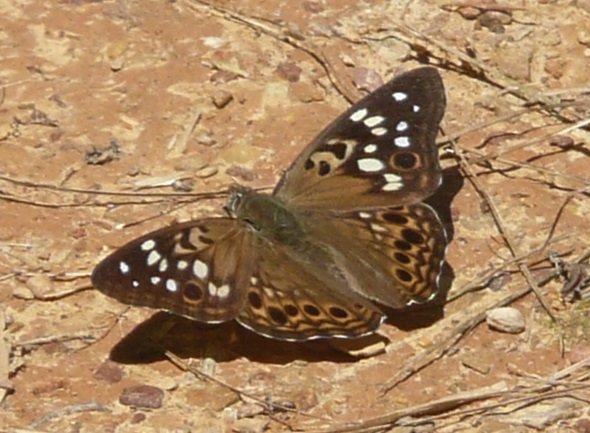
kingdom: Animalia
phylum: Arthropoda
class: Insecta
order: Lepidoptera
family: Nymphalidae
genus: Asterocampa
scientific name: Asterocampa celtis
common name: Hackberry Emperor
